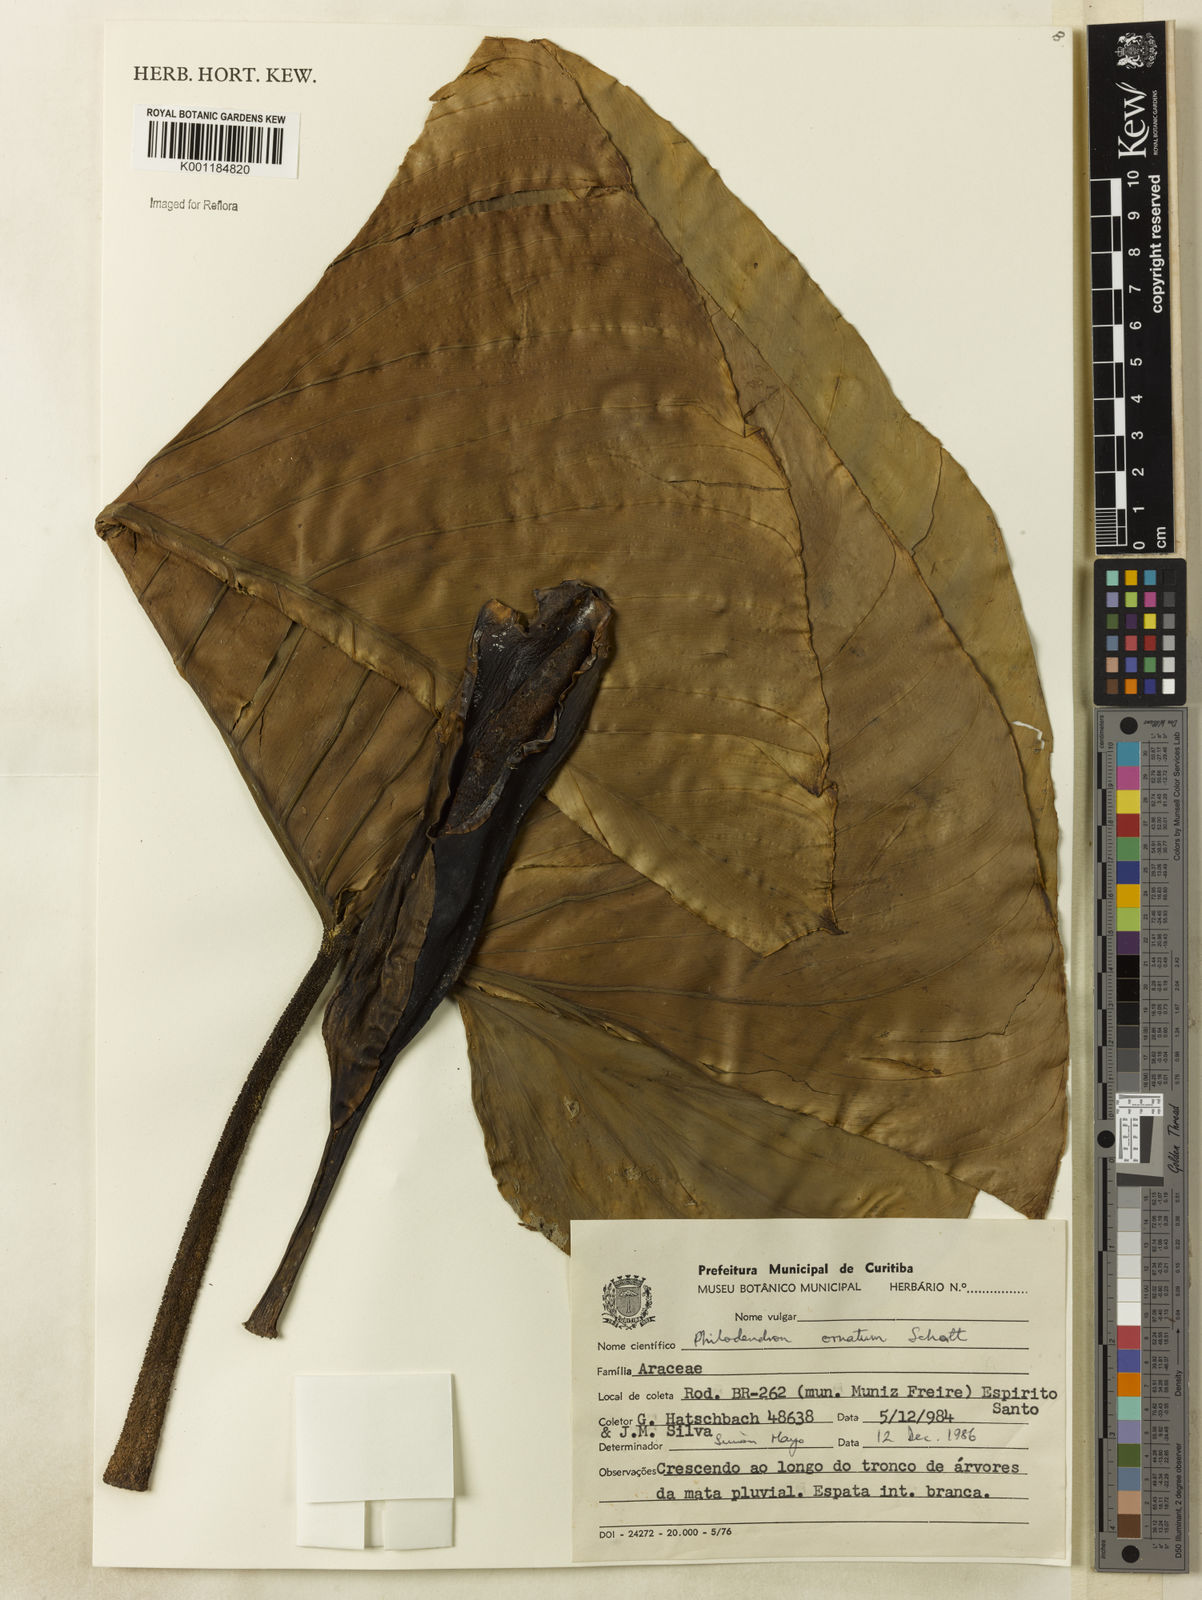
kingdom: Plantae
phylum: Tracheophyta
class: Liliopsida
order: Alismatales
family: Araceae
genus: Philodendron
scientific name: Philodendron ornatum
